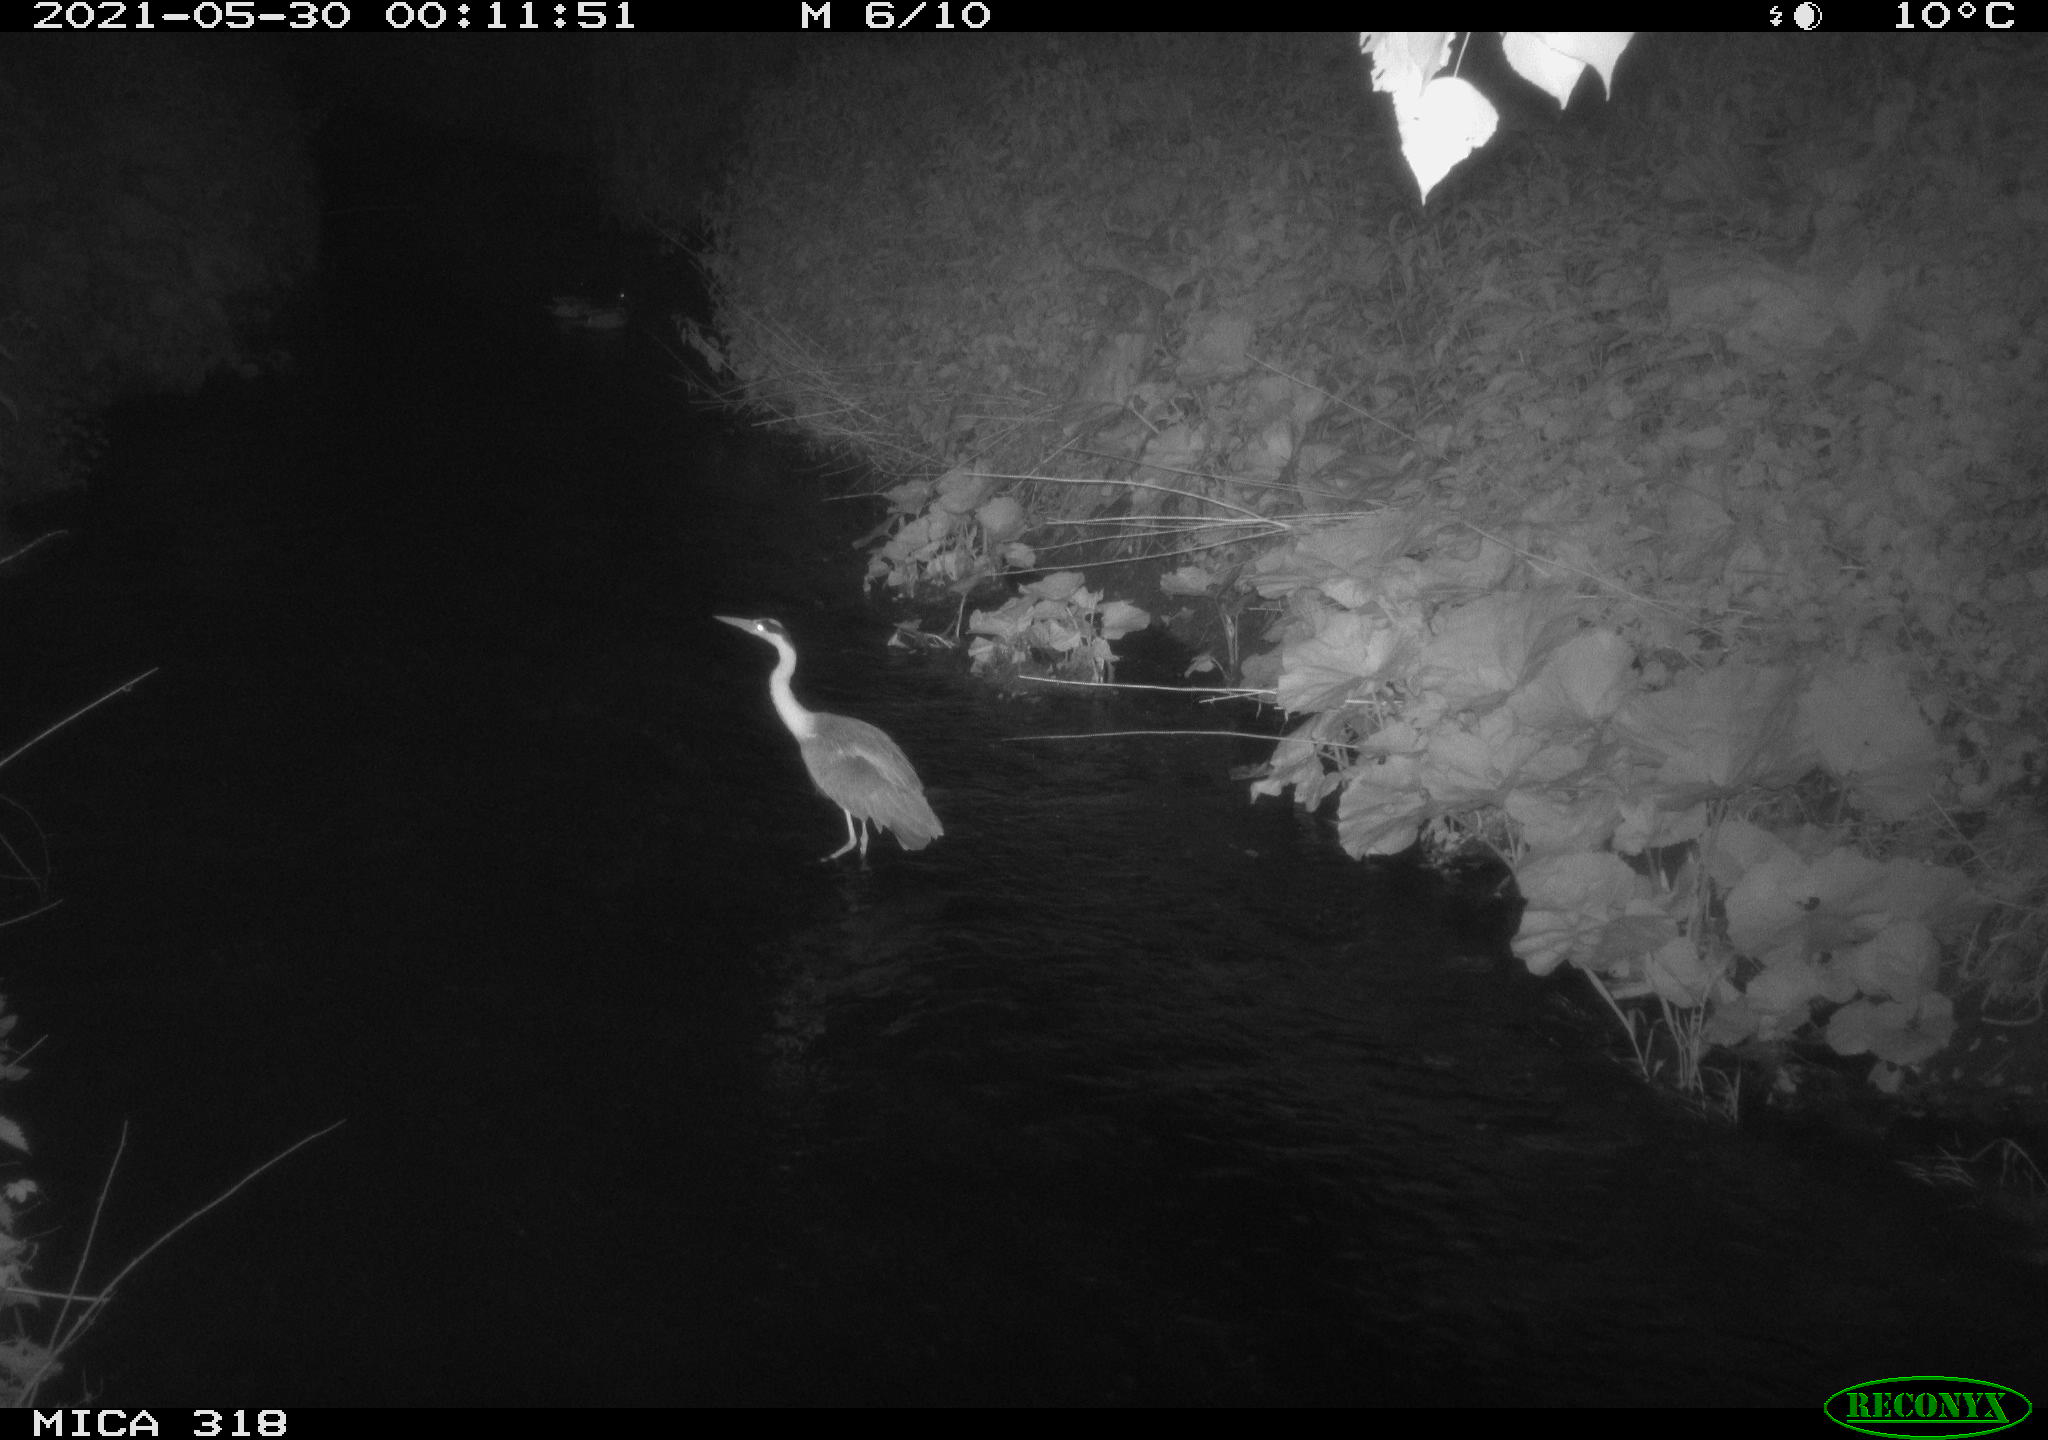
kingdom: Animalia
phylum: Chordata
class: Aves
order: Pelecaniformes
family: Ardeidae
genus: Ardea
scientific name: Ardea cinerea
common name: Grey heron
